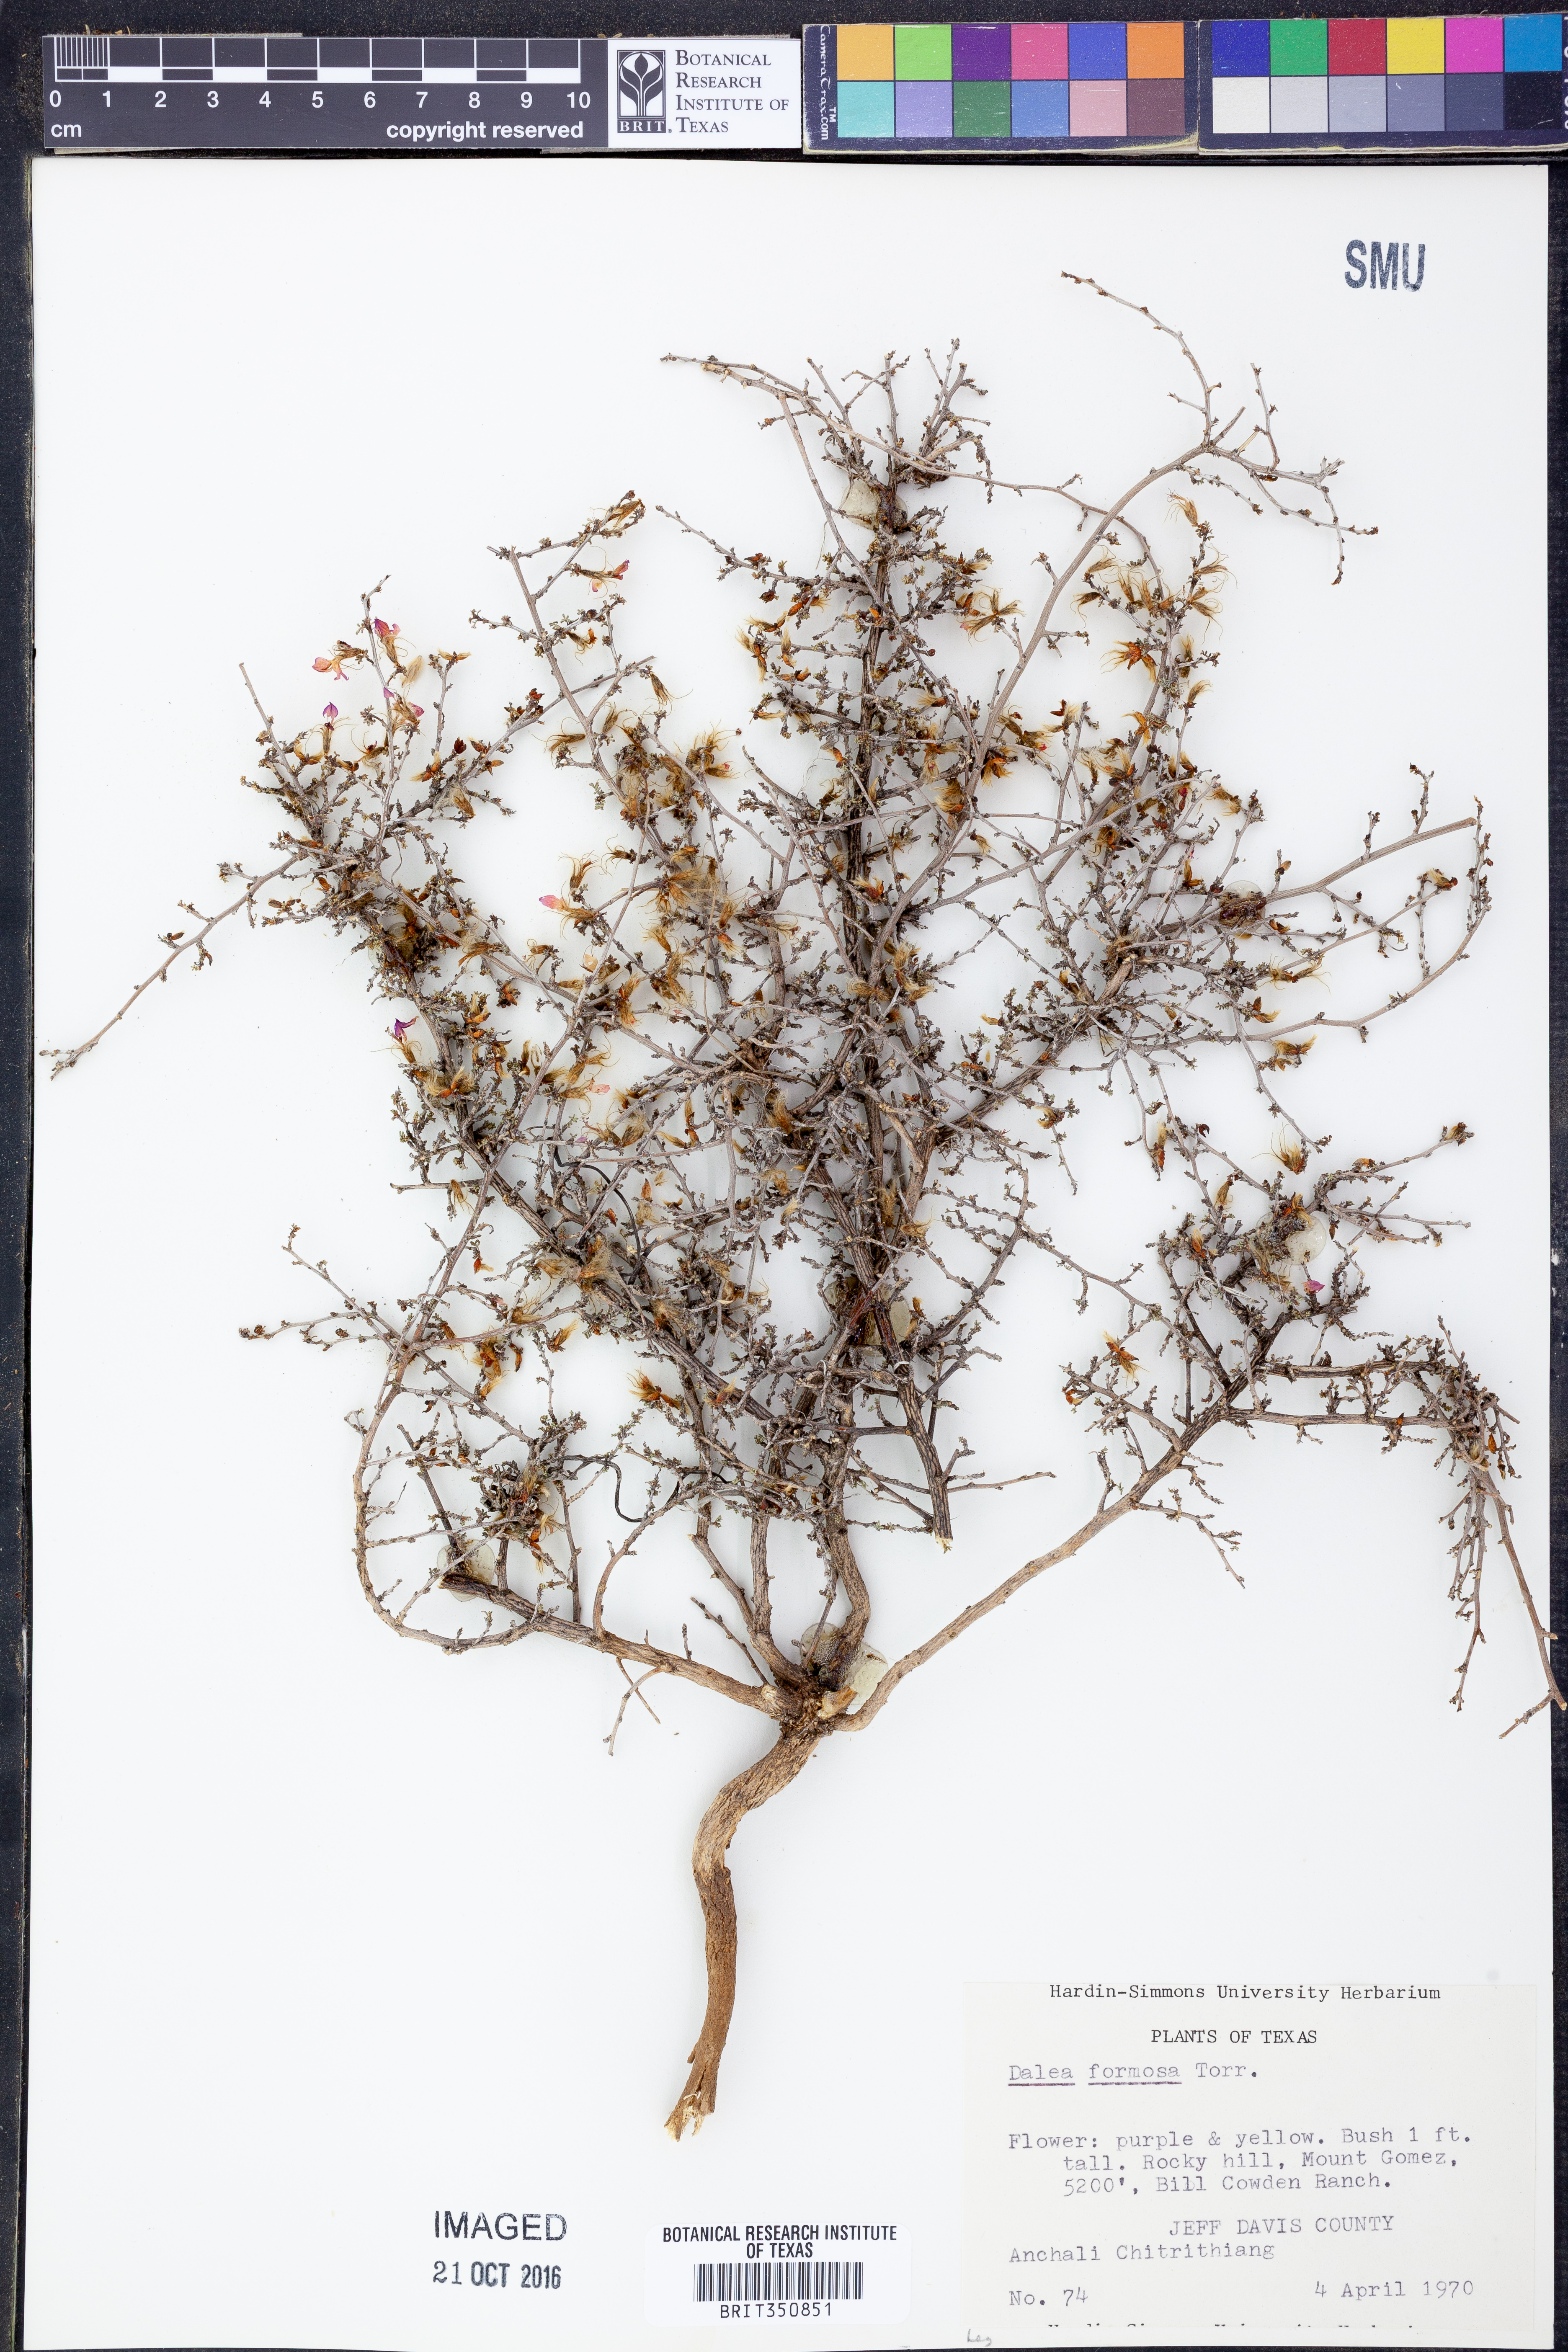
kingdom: Plantae
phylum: Tracheophyta
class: Magnoliopsida
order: Fabales
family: Fabaceae
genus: Dalea
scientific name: Dalea formosa
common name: Feather-plume dalea
